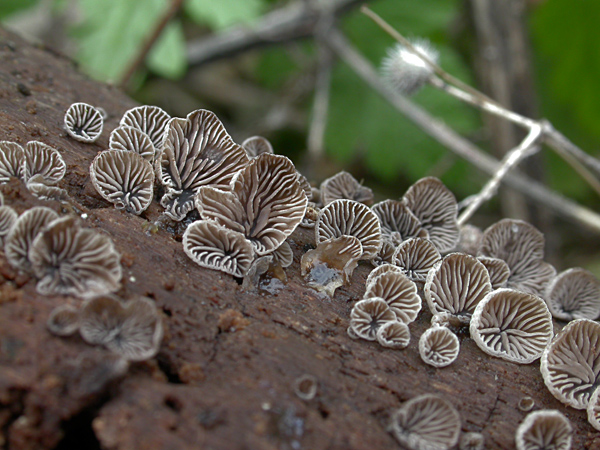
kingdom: Fungi
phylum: Basidiomycota
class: Agaricomycetes
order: Agaricales
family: Pleurotaceae
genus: Resupinatus
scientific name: Resupinatus applicatus
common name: lysfiltet barkhat
